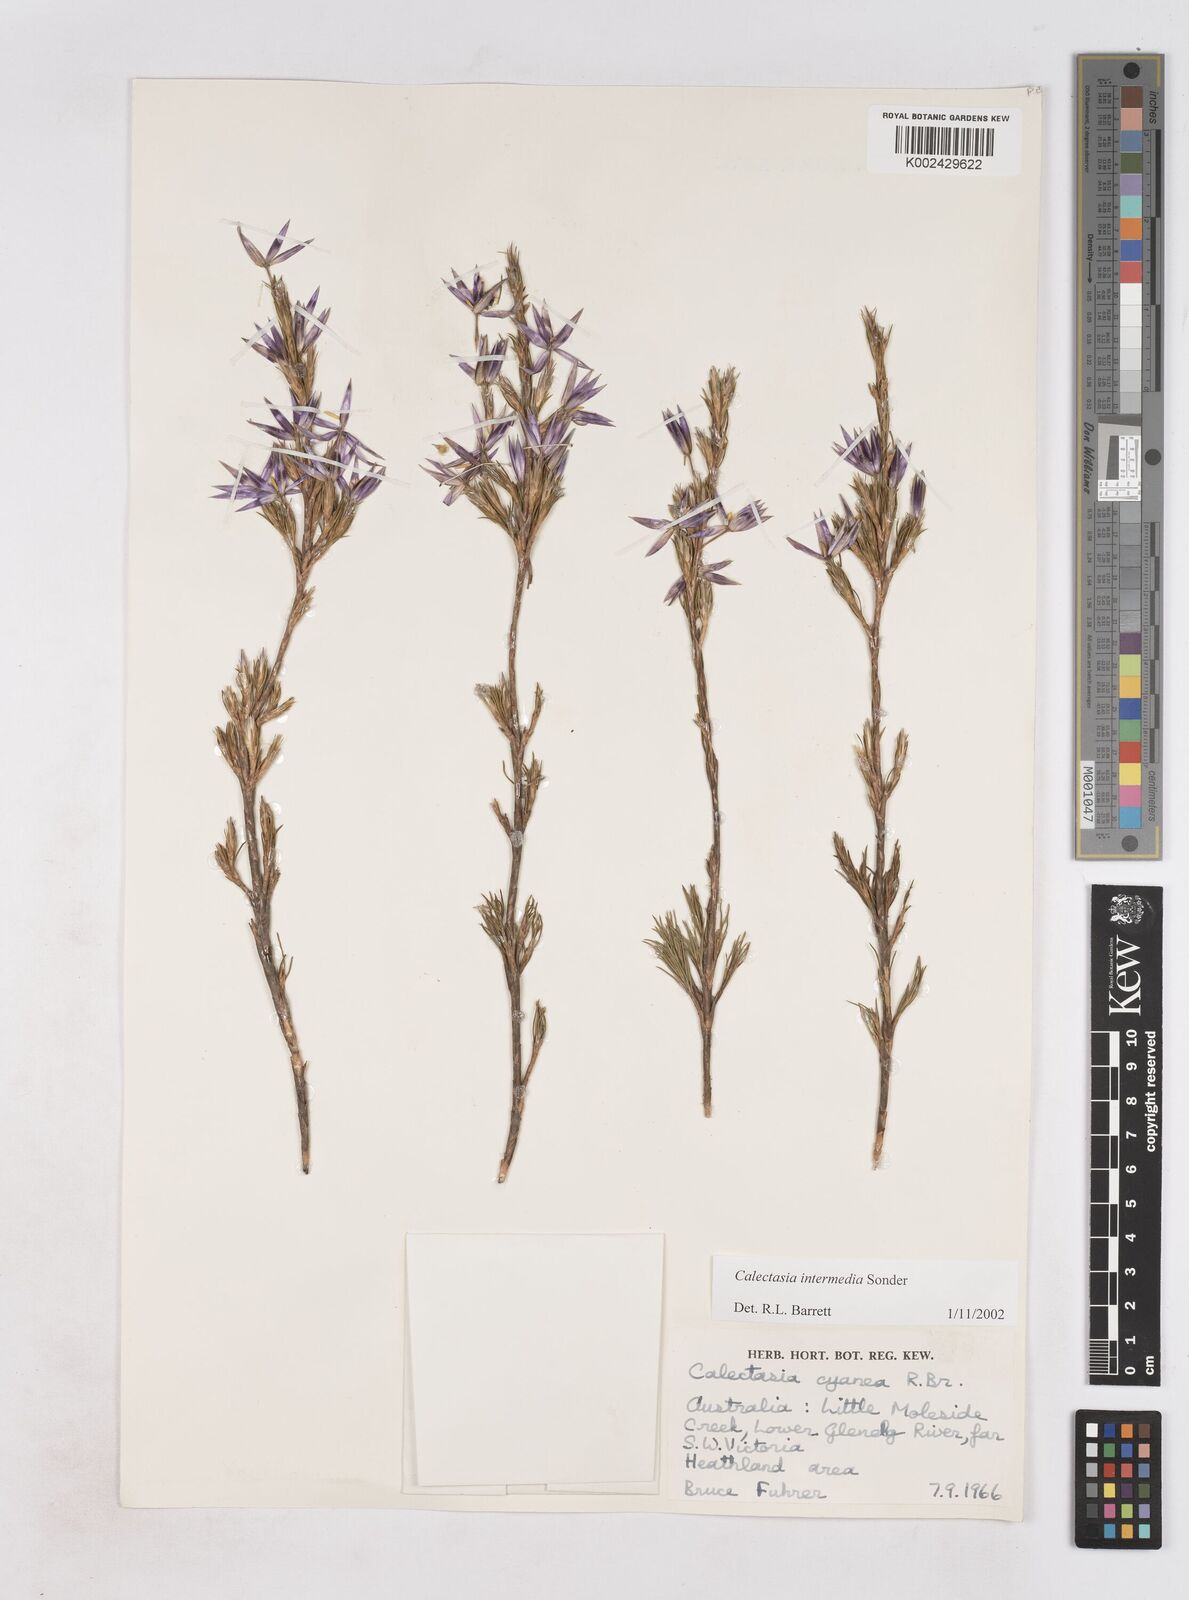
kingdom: Plantae
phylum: Tracheophyta
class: Liliopsida
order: Arecales
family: Dasypogonaceae
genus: Calectasia
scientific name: Calectasia intermedia
